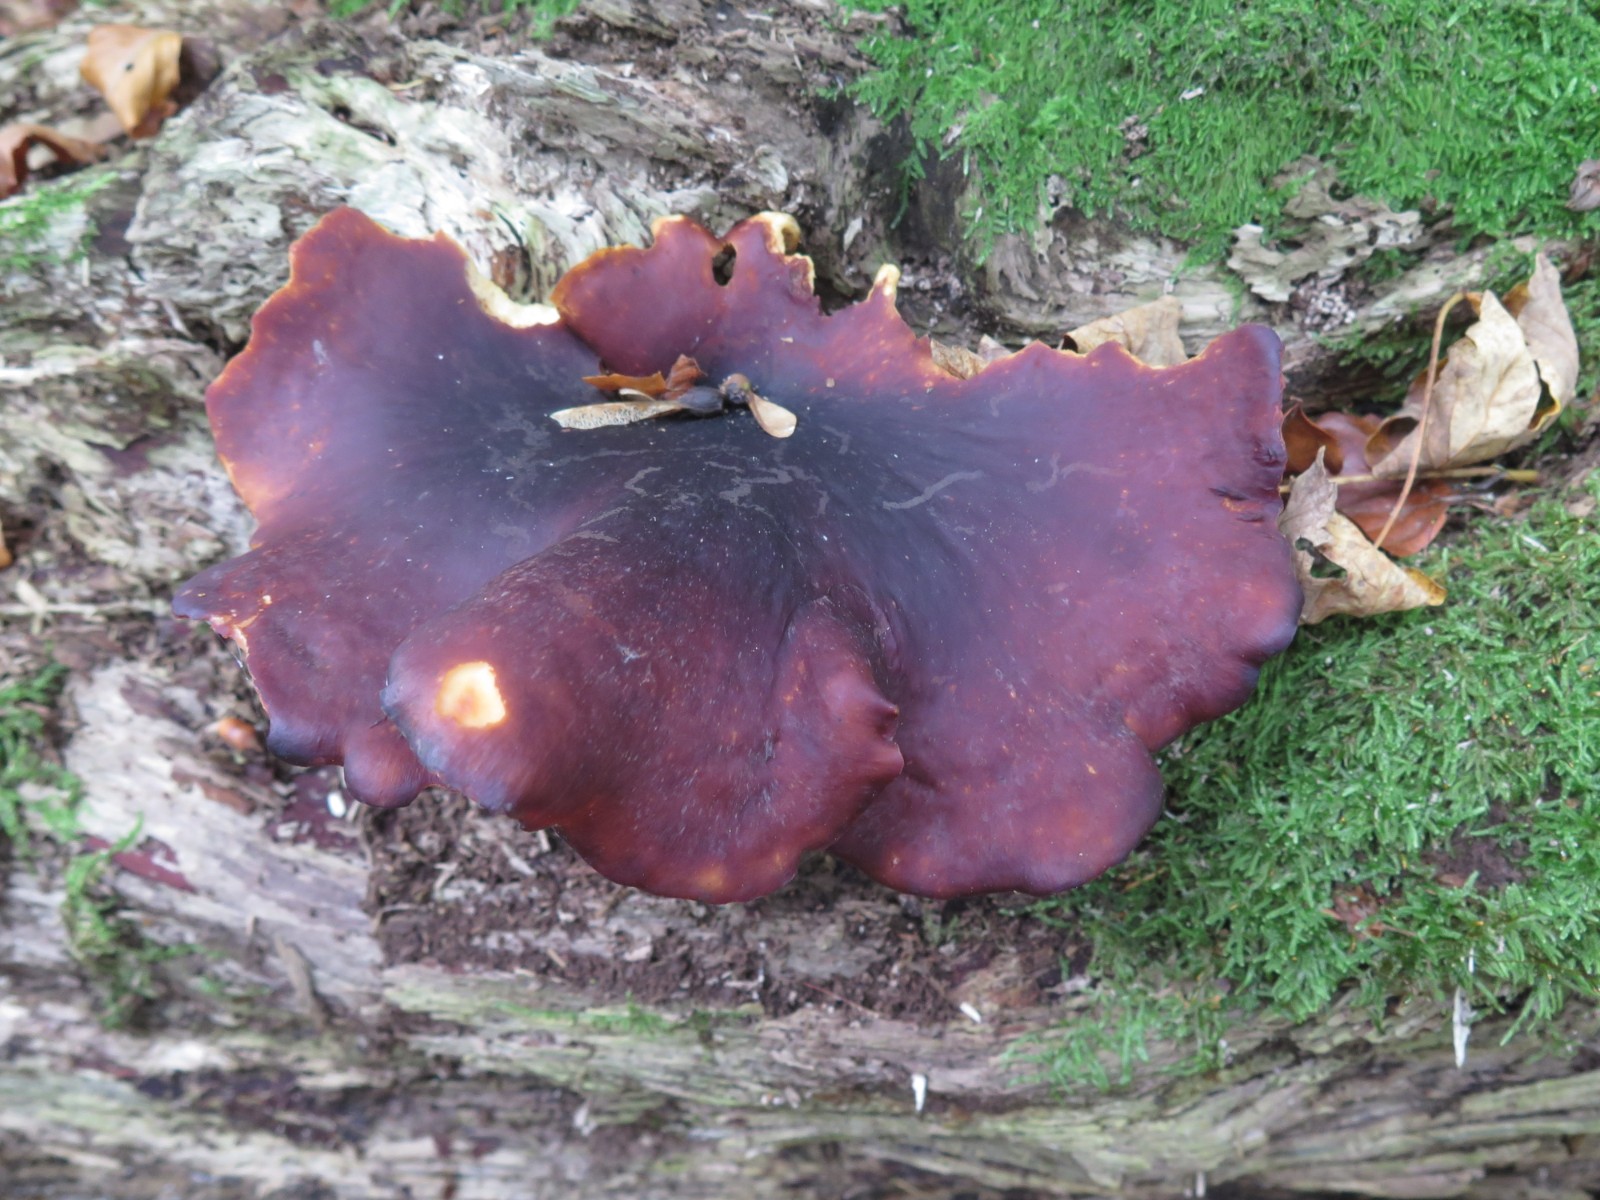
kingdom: Fungi
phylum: Basidiomycota
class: Agaricomycetes
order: Polyporales
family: Polyporaceae
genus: Picipes
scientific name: Picipes badius
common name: kastaniebrun stilkporesvamp
